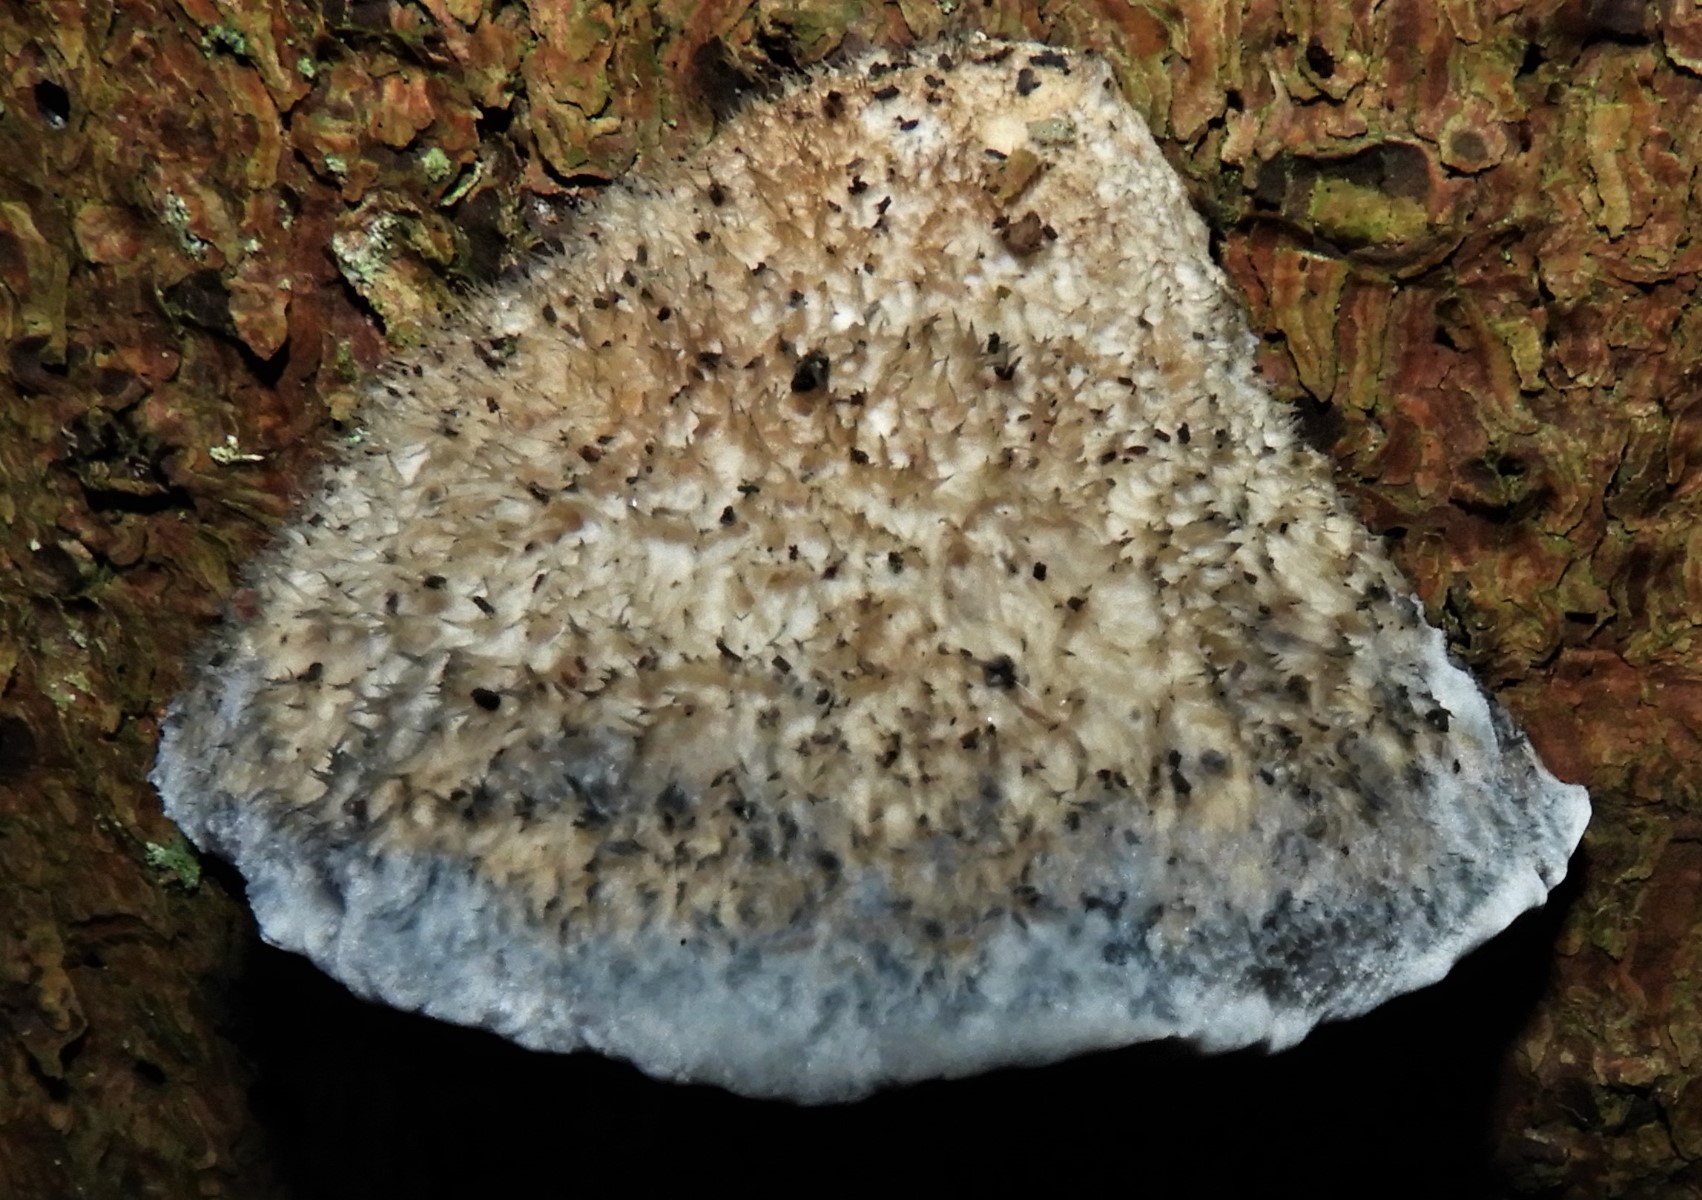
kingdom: Fungi
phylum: Basidiomycota
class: Agaricomycetes
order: Polyporales
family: Polyporaceae
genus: Cyanosporus
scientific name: Cyanosporus caesius
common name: blålig kødporesvamp
